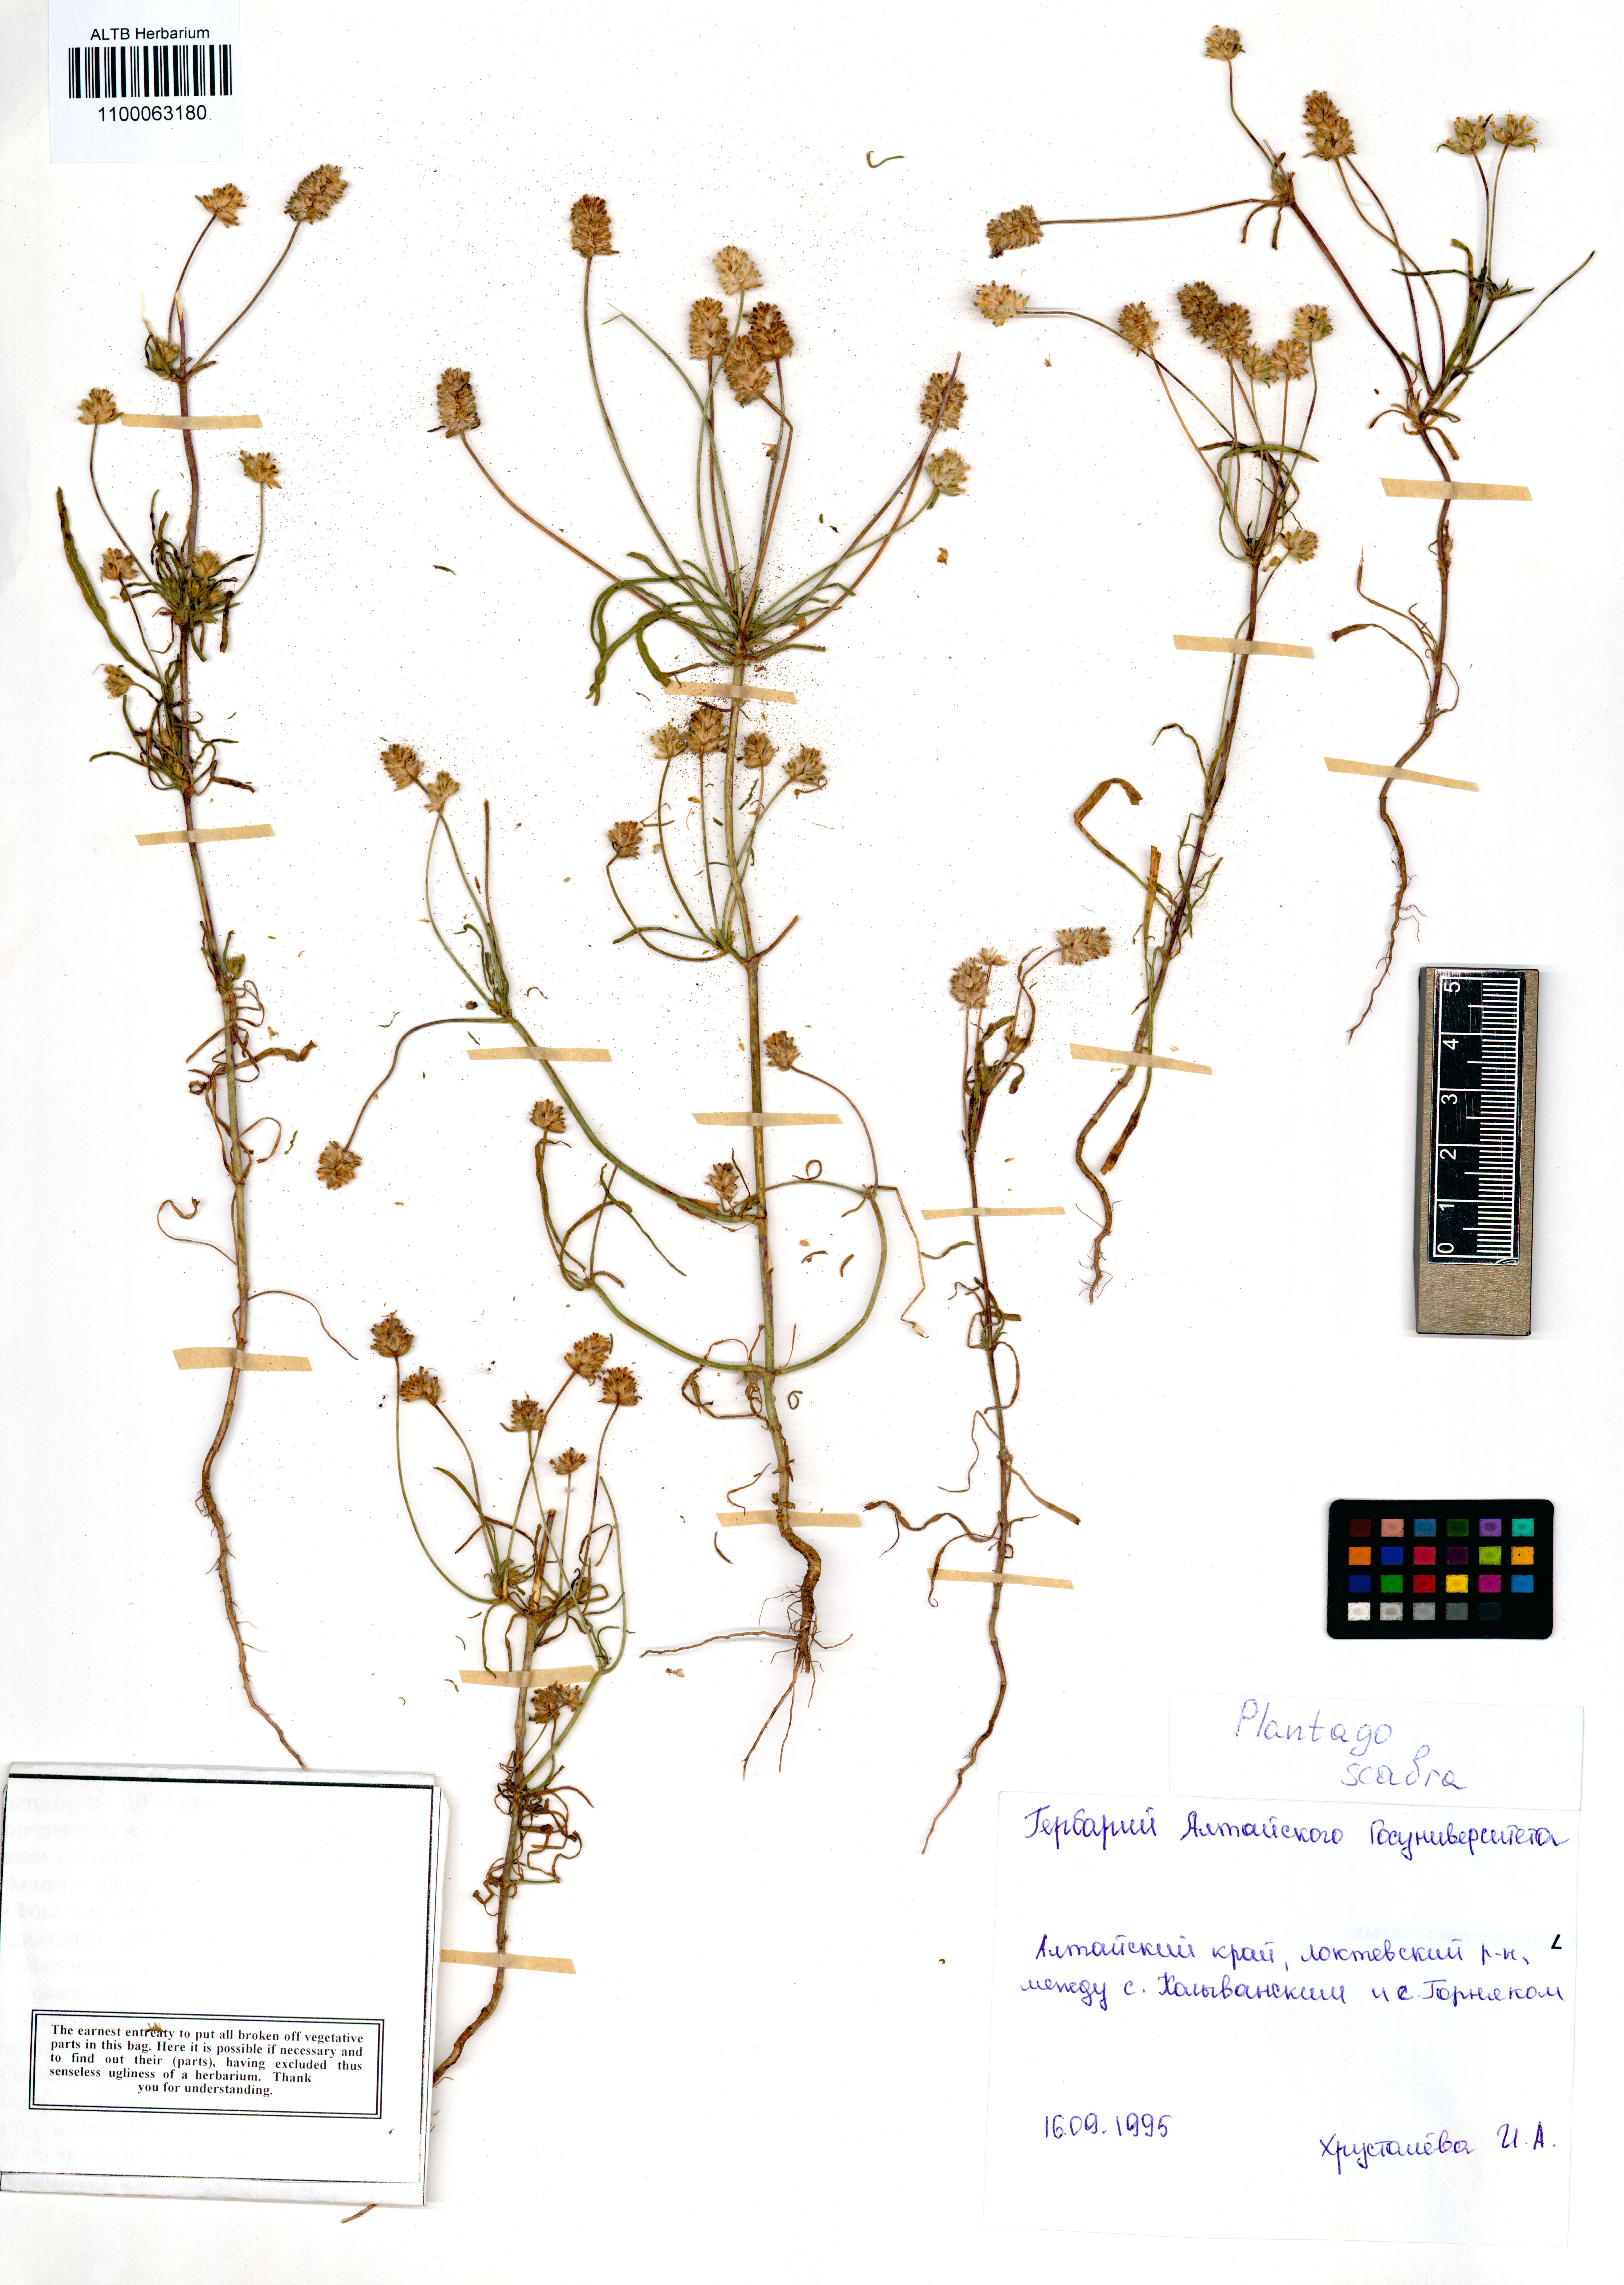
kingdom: Plantae
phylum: Tracheophyta
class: Magnoliopsida
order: Lamiales
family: Plantaginaceae
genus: Plantago
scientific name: Plantago arenaria
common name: Branched plantain
